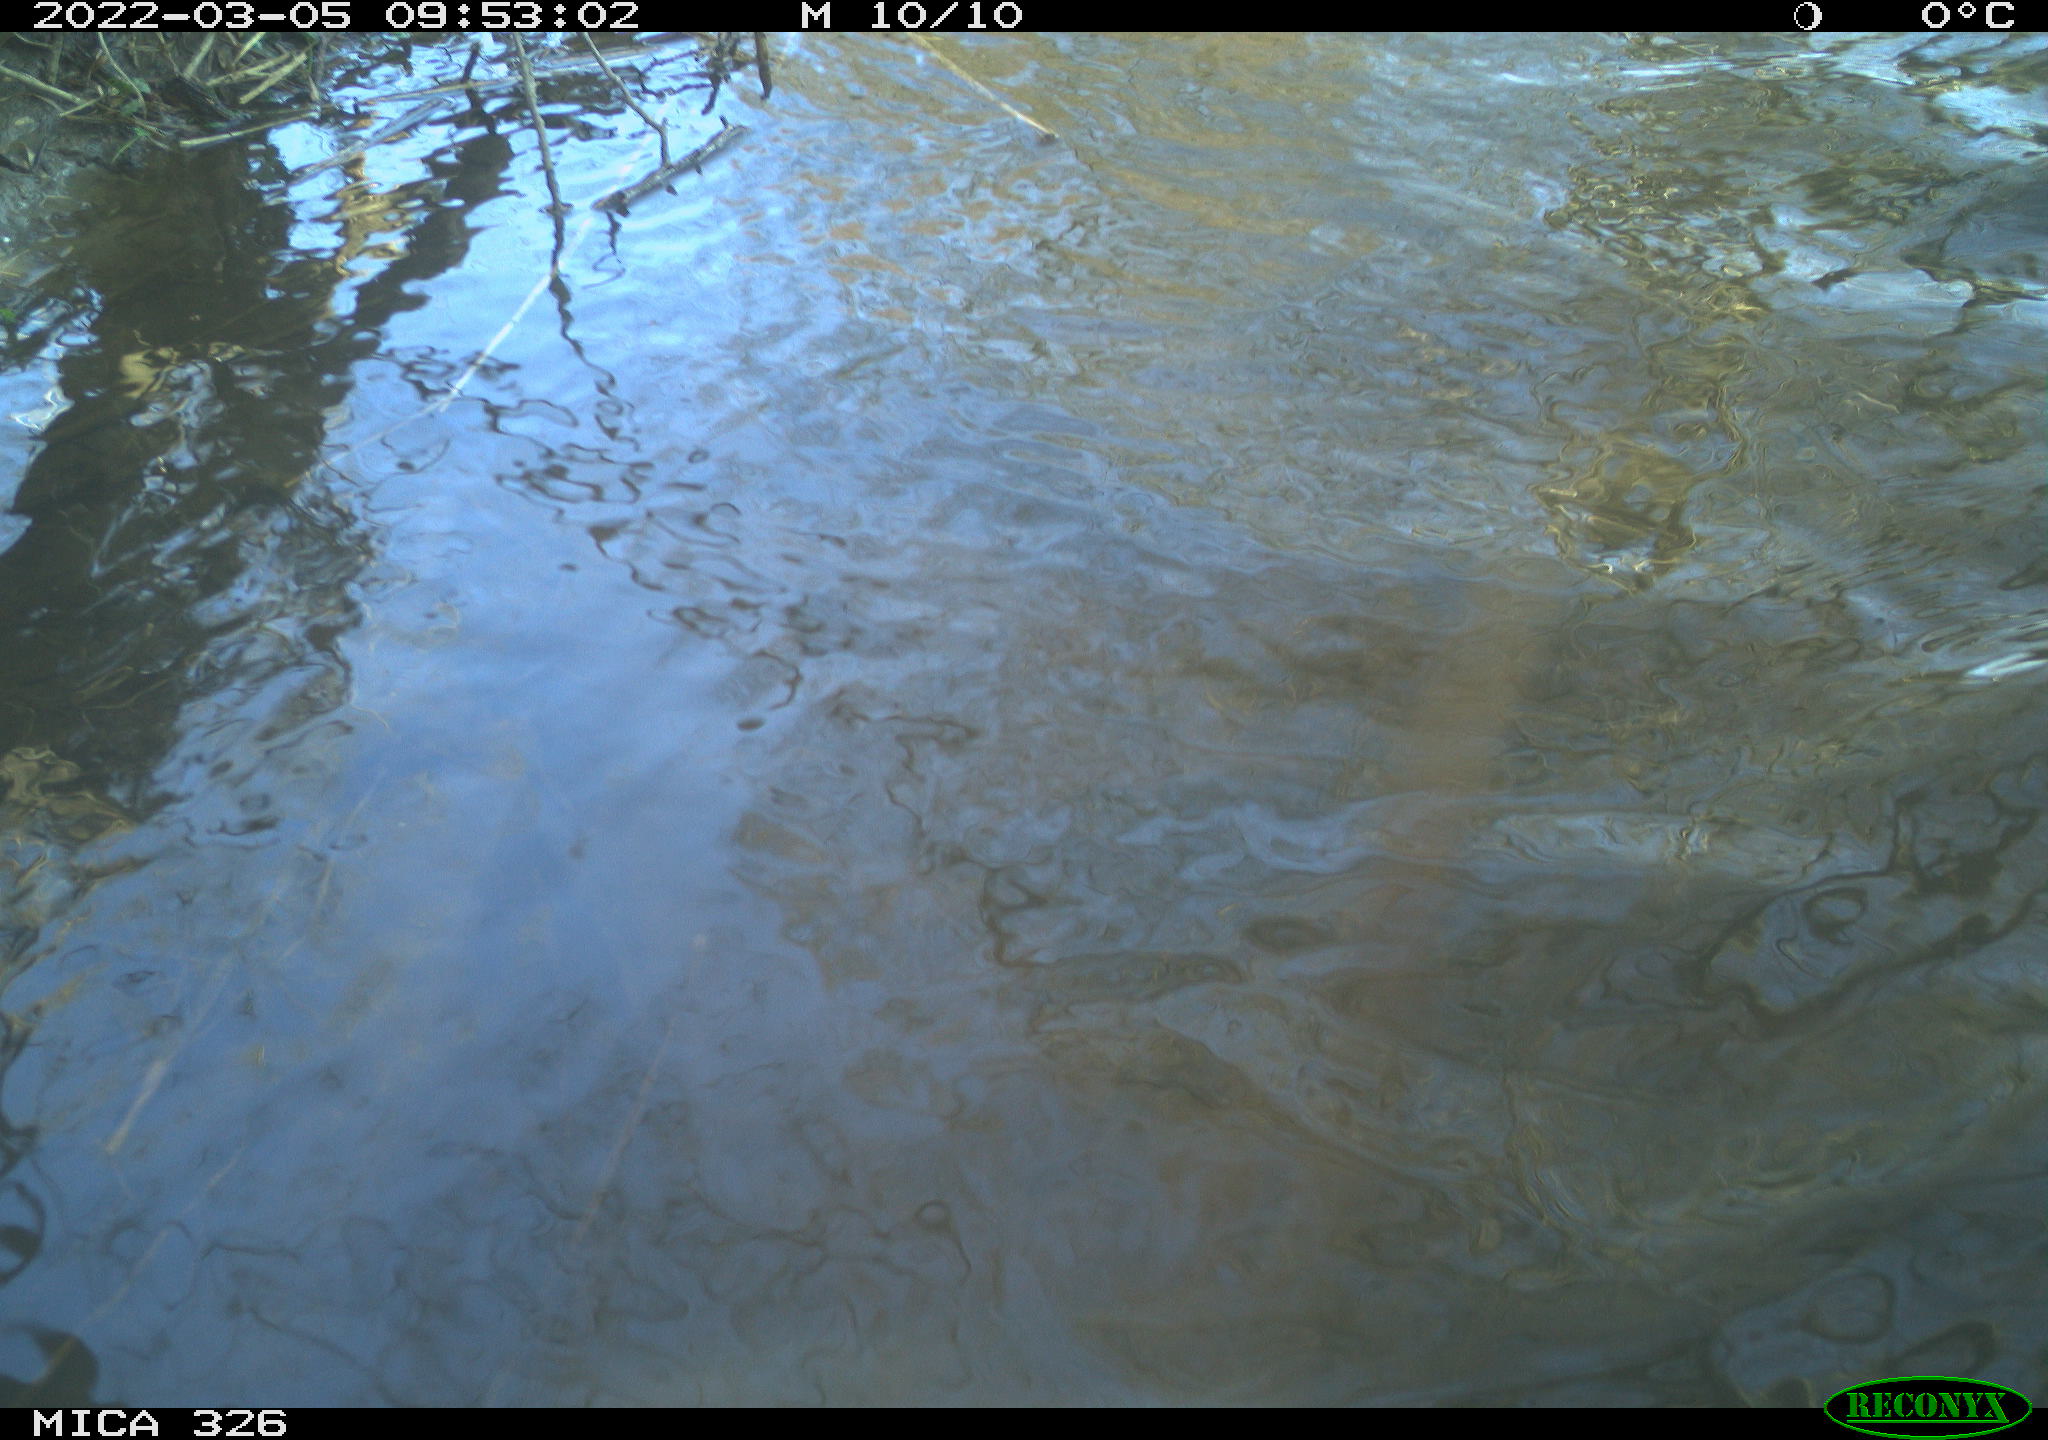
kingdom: Animalia
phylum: Chordata
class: Mammalia
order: Rodentia
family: Cricetidae
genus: Ondatra
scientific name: Ondatra zibethicus
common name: Muskrat
